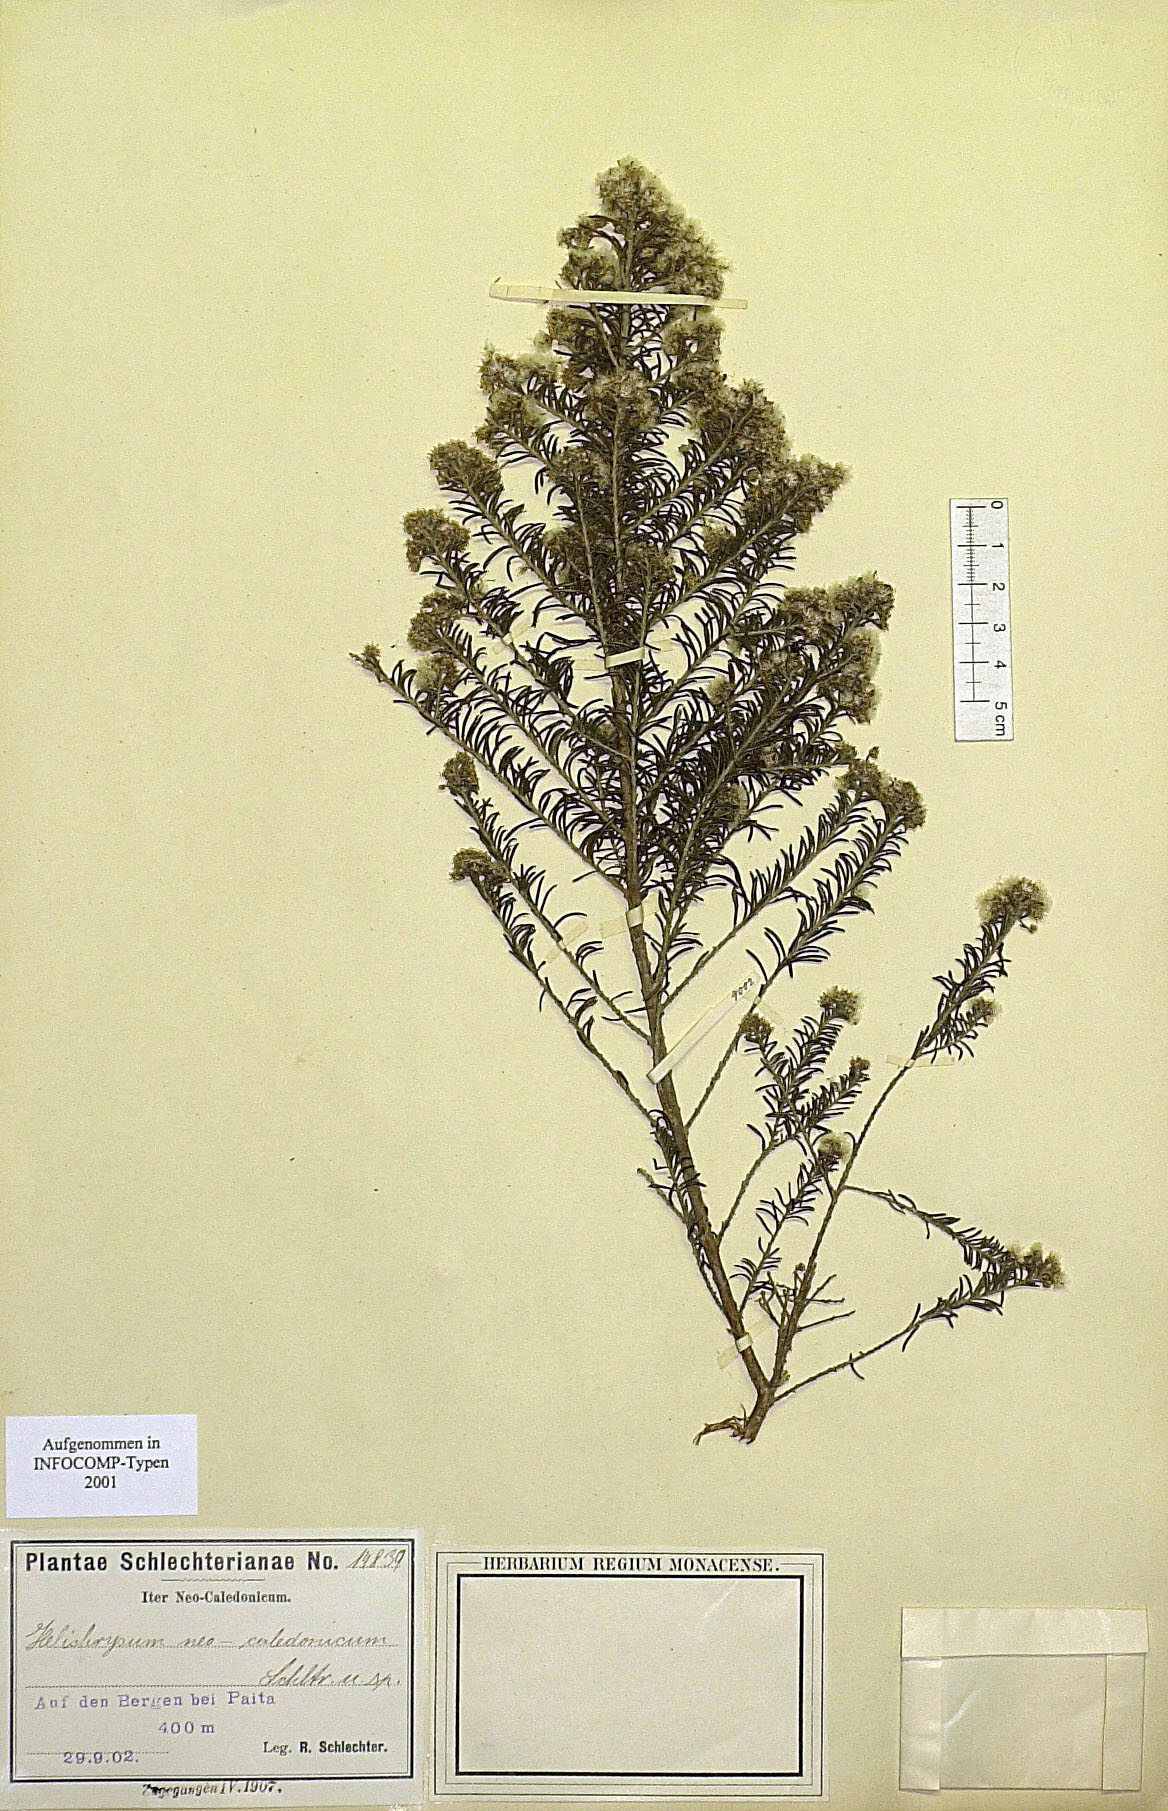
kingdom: Plantae
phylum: Tracheophyta
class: Magnoliopsida
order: Asterales
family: Asteraceae
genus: Cassinia
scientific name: Cassinia leptophylla
